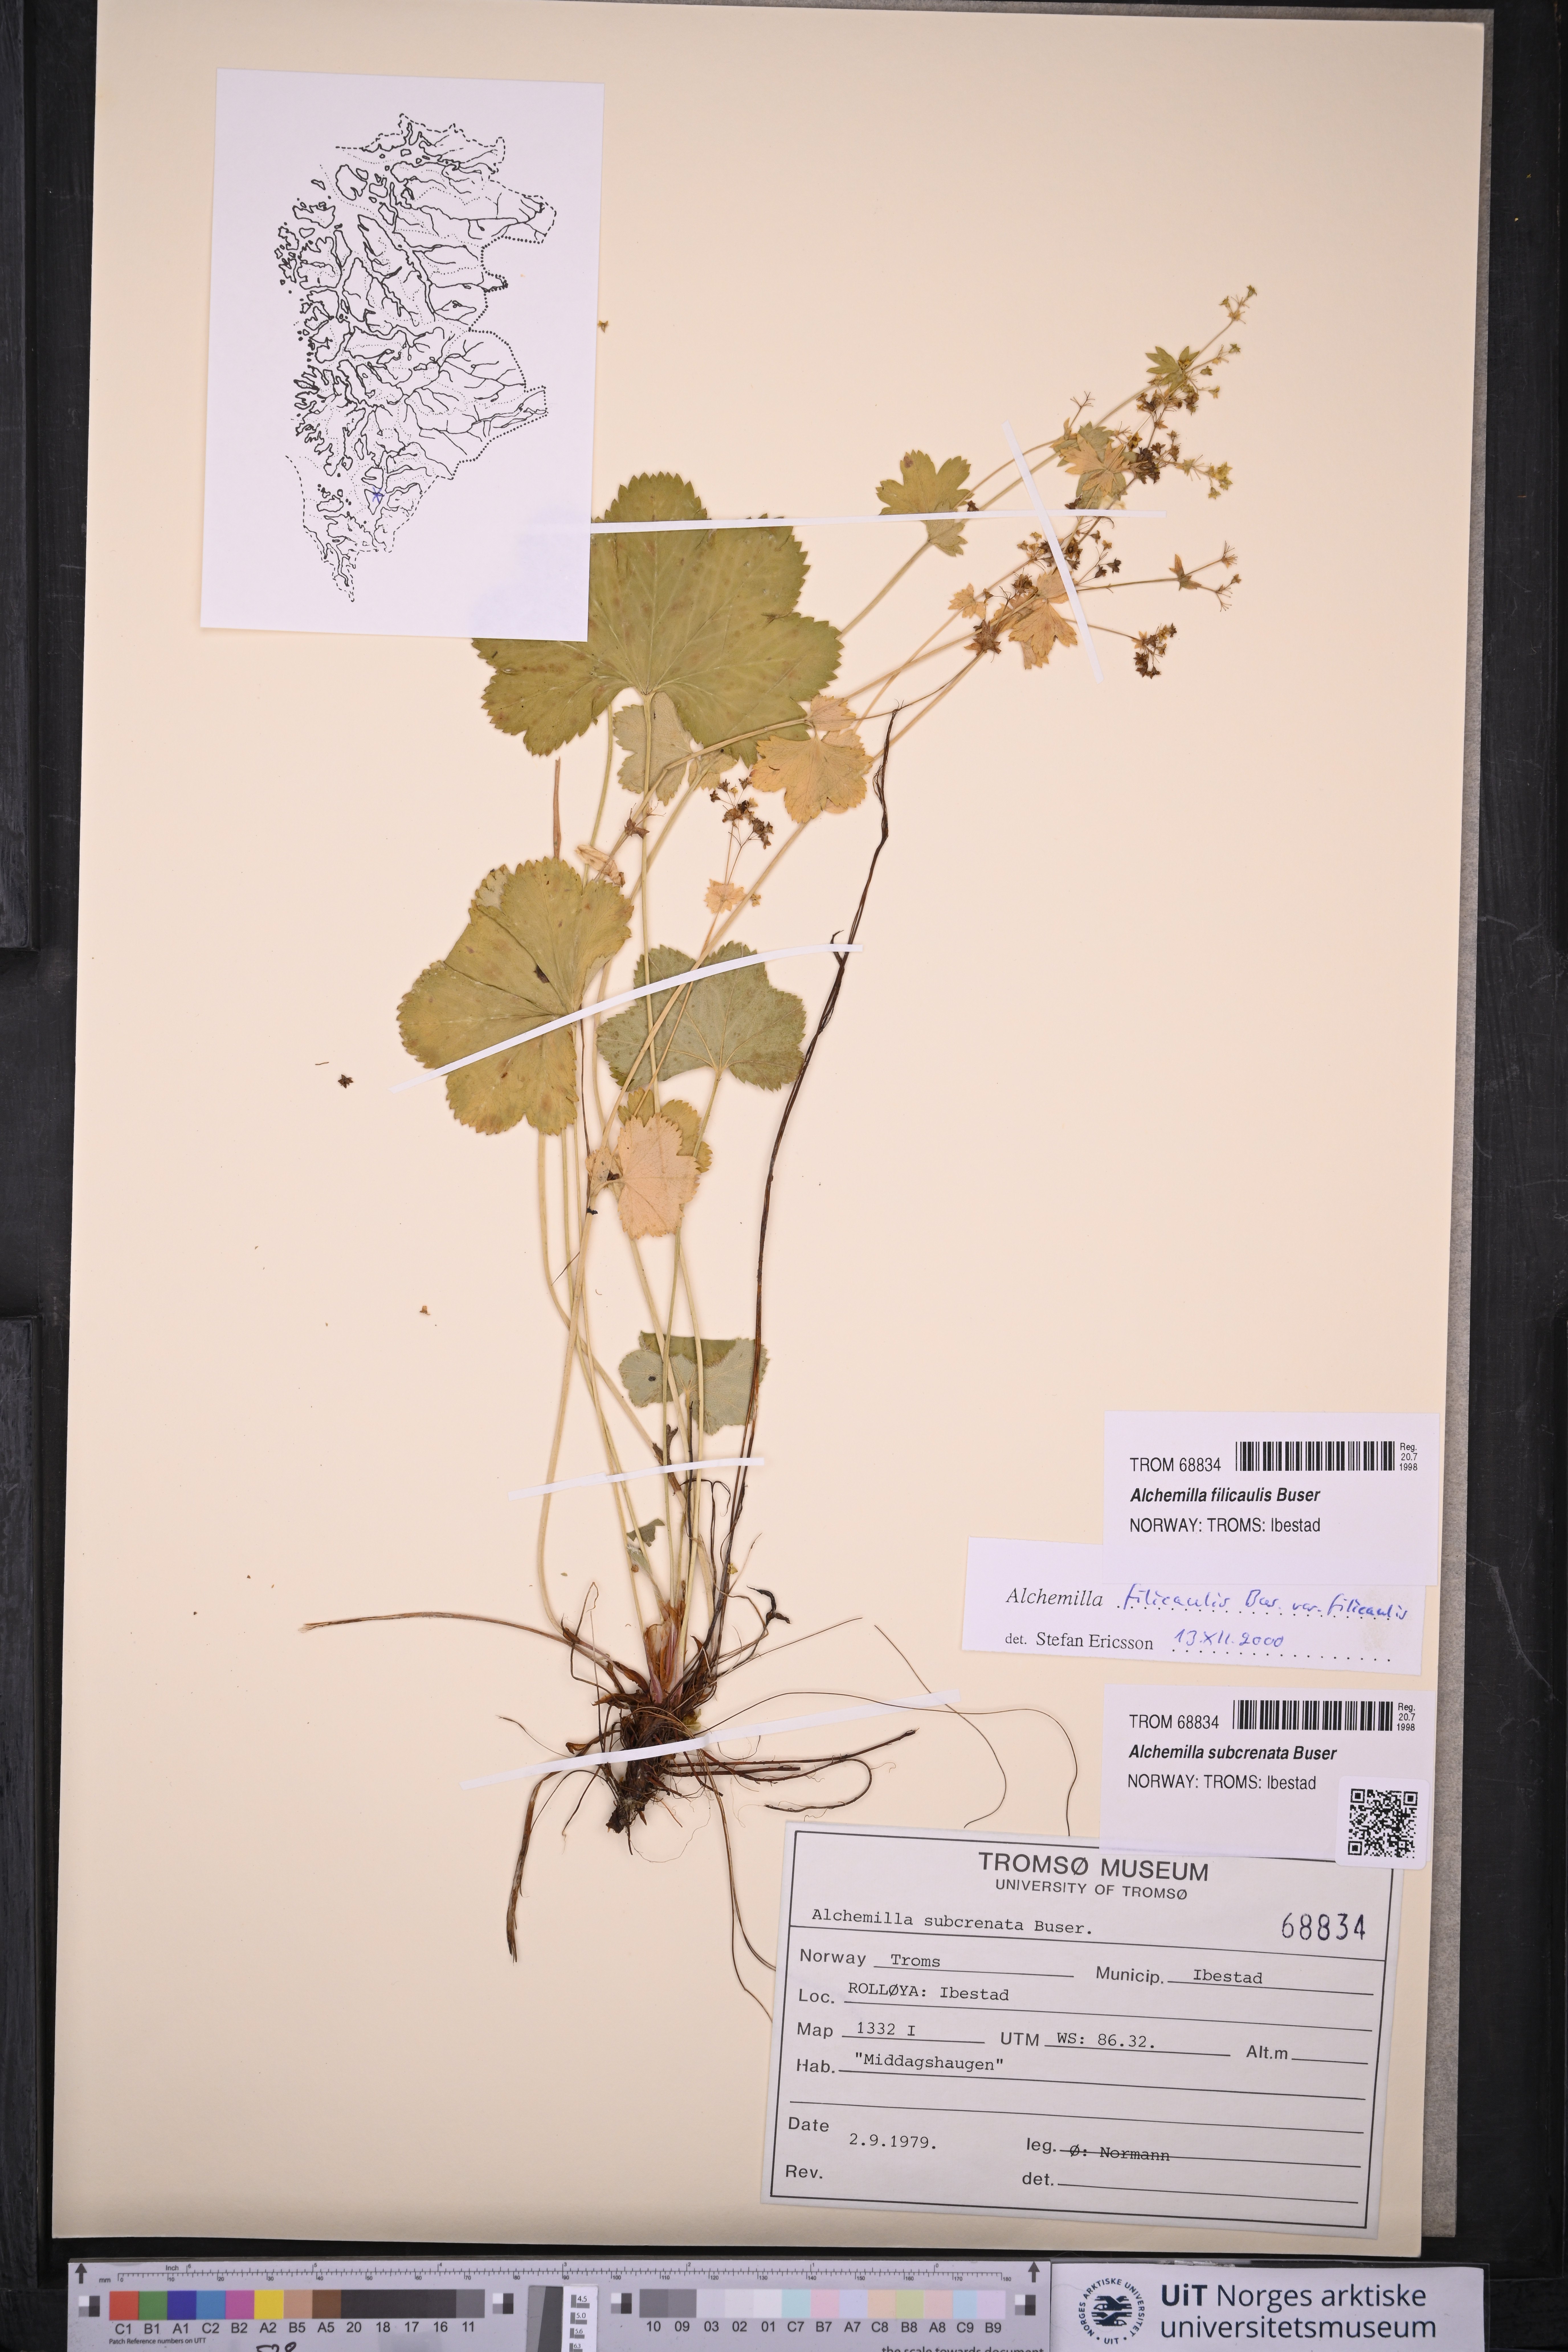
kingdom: Plantae
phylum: Tracheophyta
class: Magnoliopsida
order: Rosales
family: Rosaceae
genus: Alchemilla
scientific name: Alchemilla filicaulis
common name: Hairy lady's-mantle
